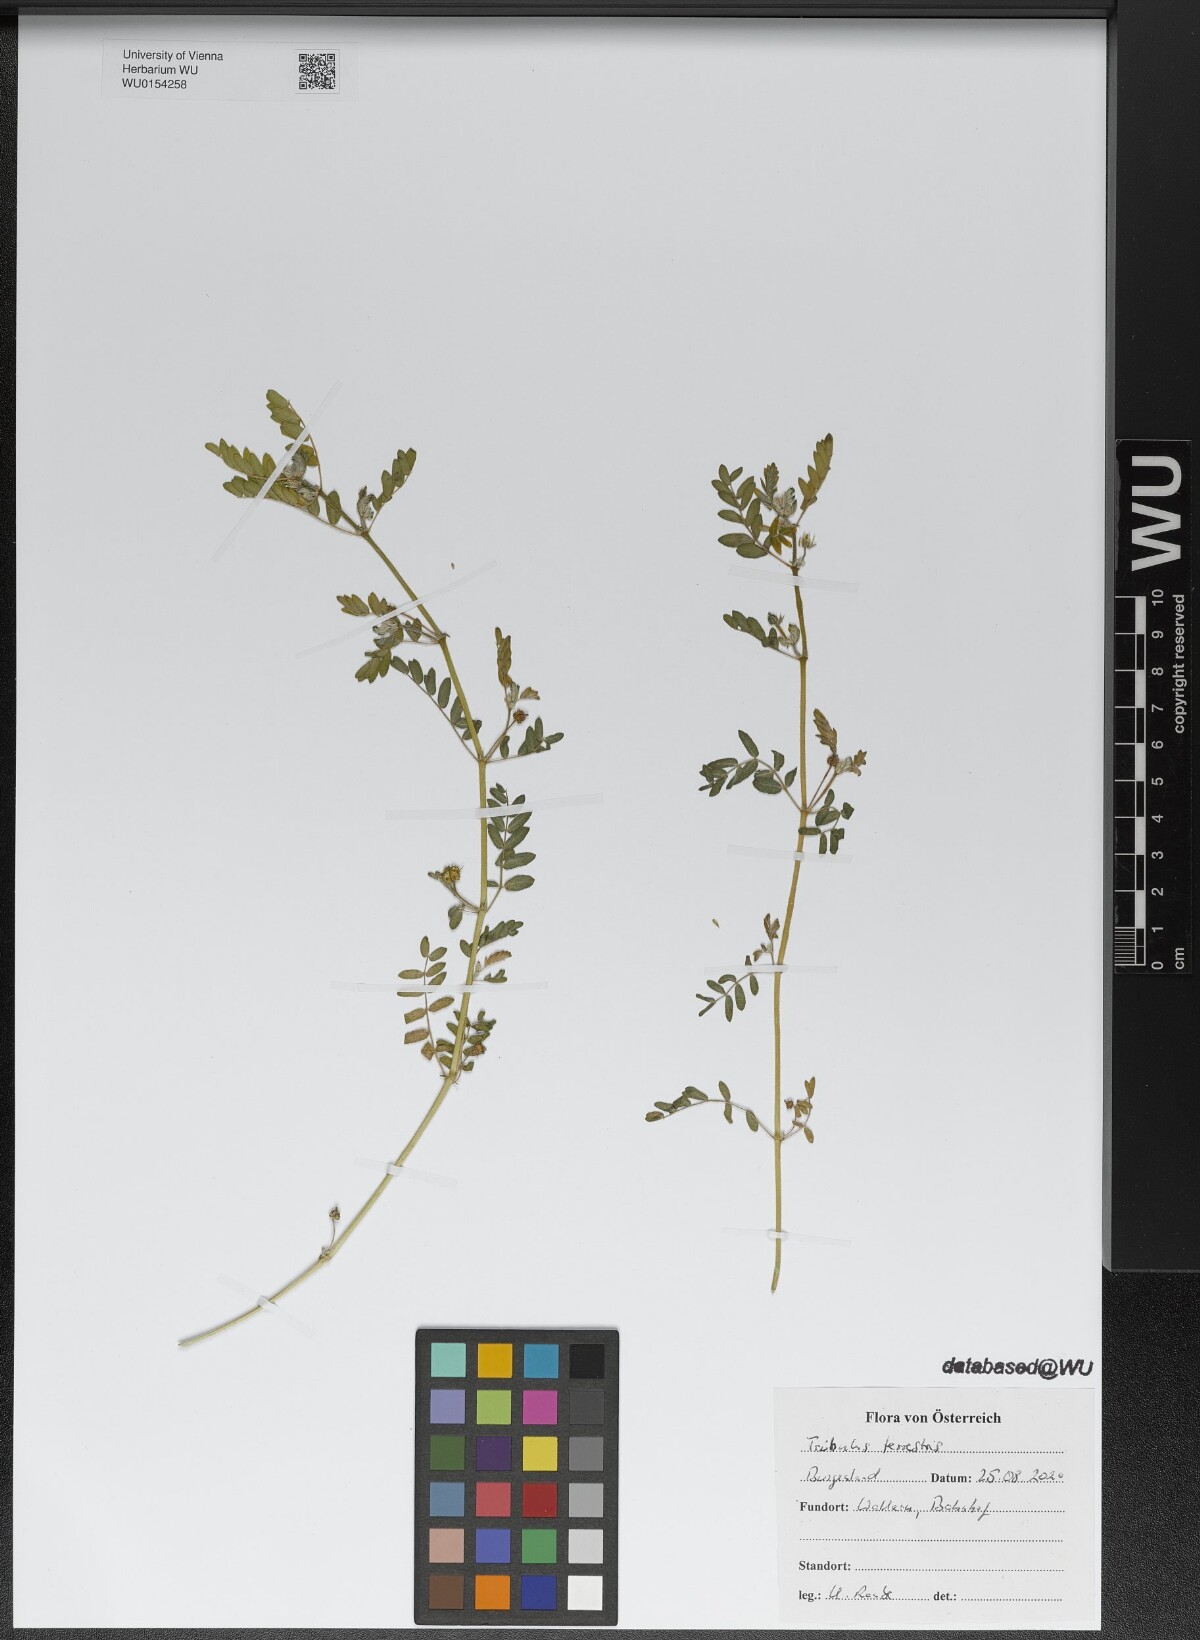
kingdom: Plantae
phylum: Tracheophyta
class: Magnoliopsida
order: Zygophyllales
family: Zygophyllaceae
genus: Tribulus
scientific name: Tribulus terrestris
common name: Puncturevine
